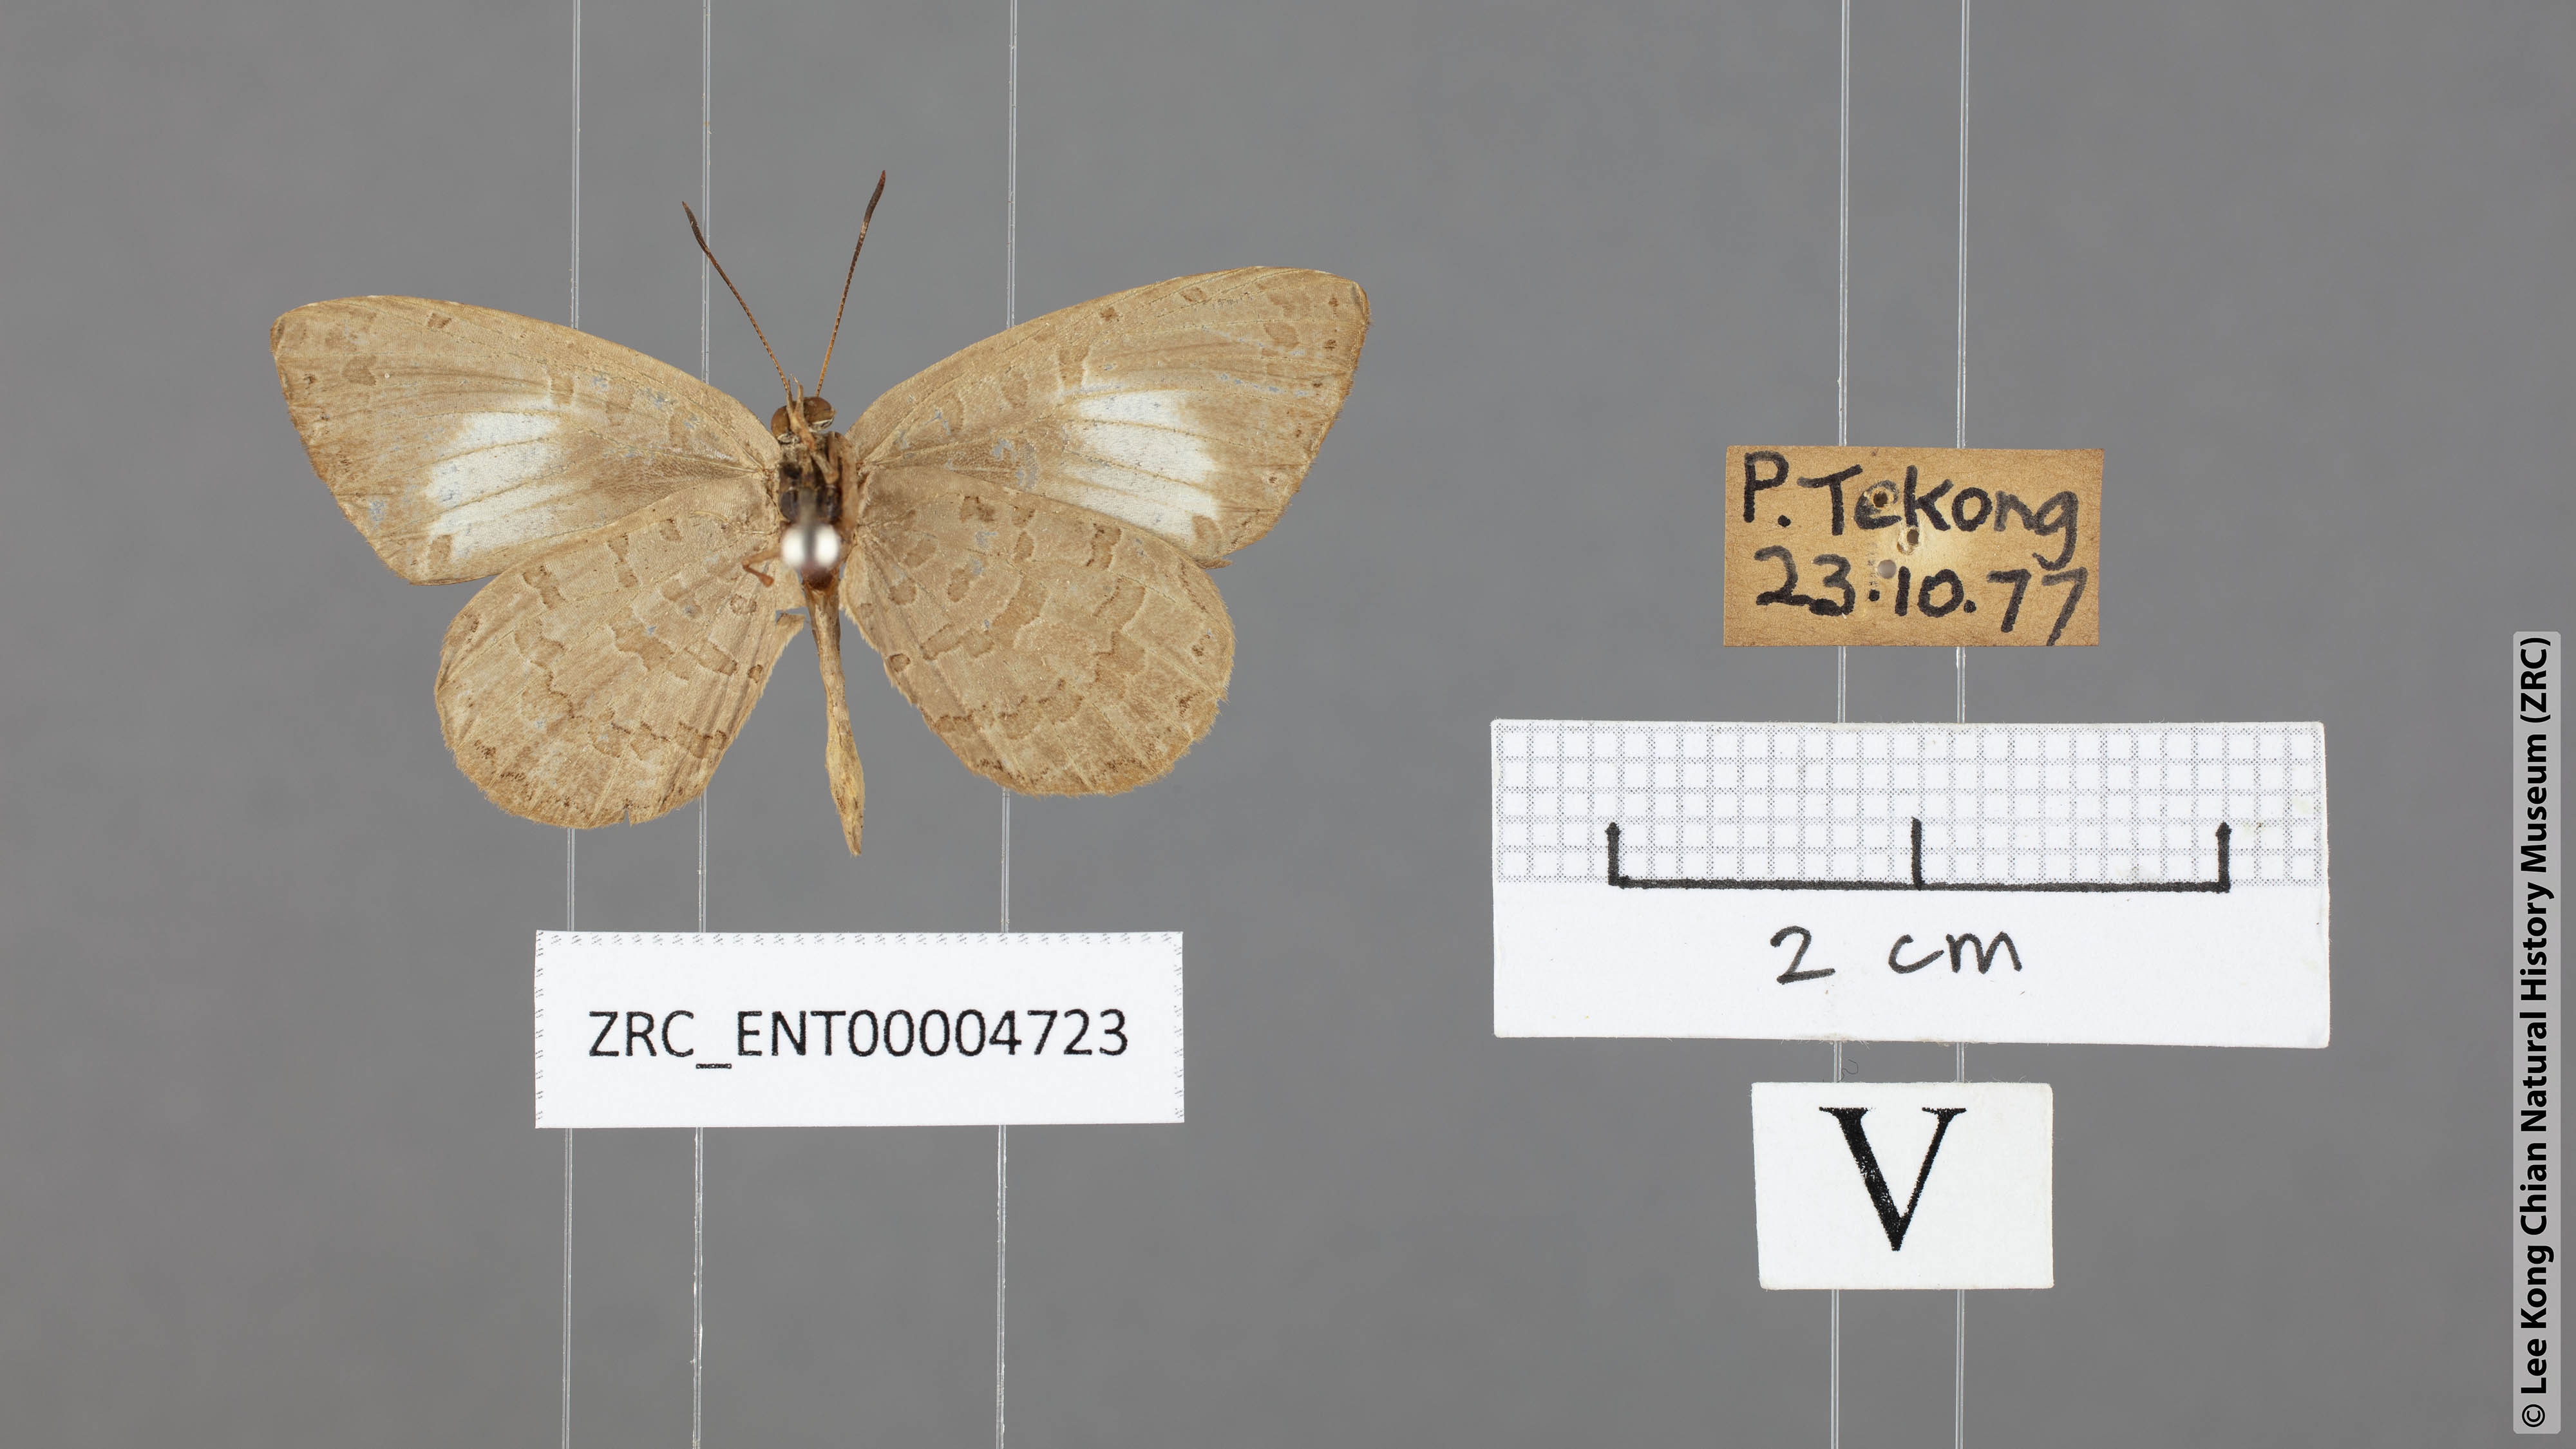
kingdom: Animalia
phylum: Arthropoda
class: Insecta
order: Lepidoptera
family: Lycaenidae
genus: Miletus
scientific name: Miletus biggsii
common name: Bigg's brownie
